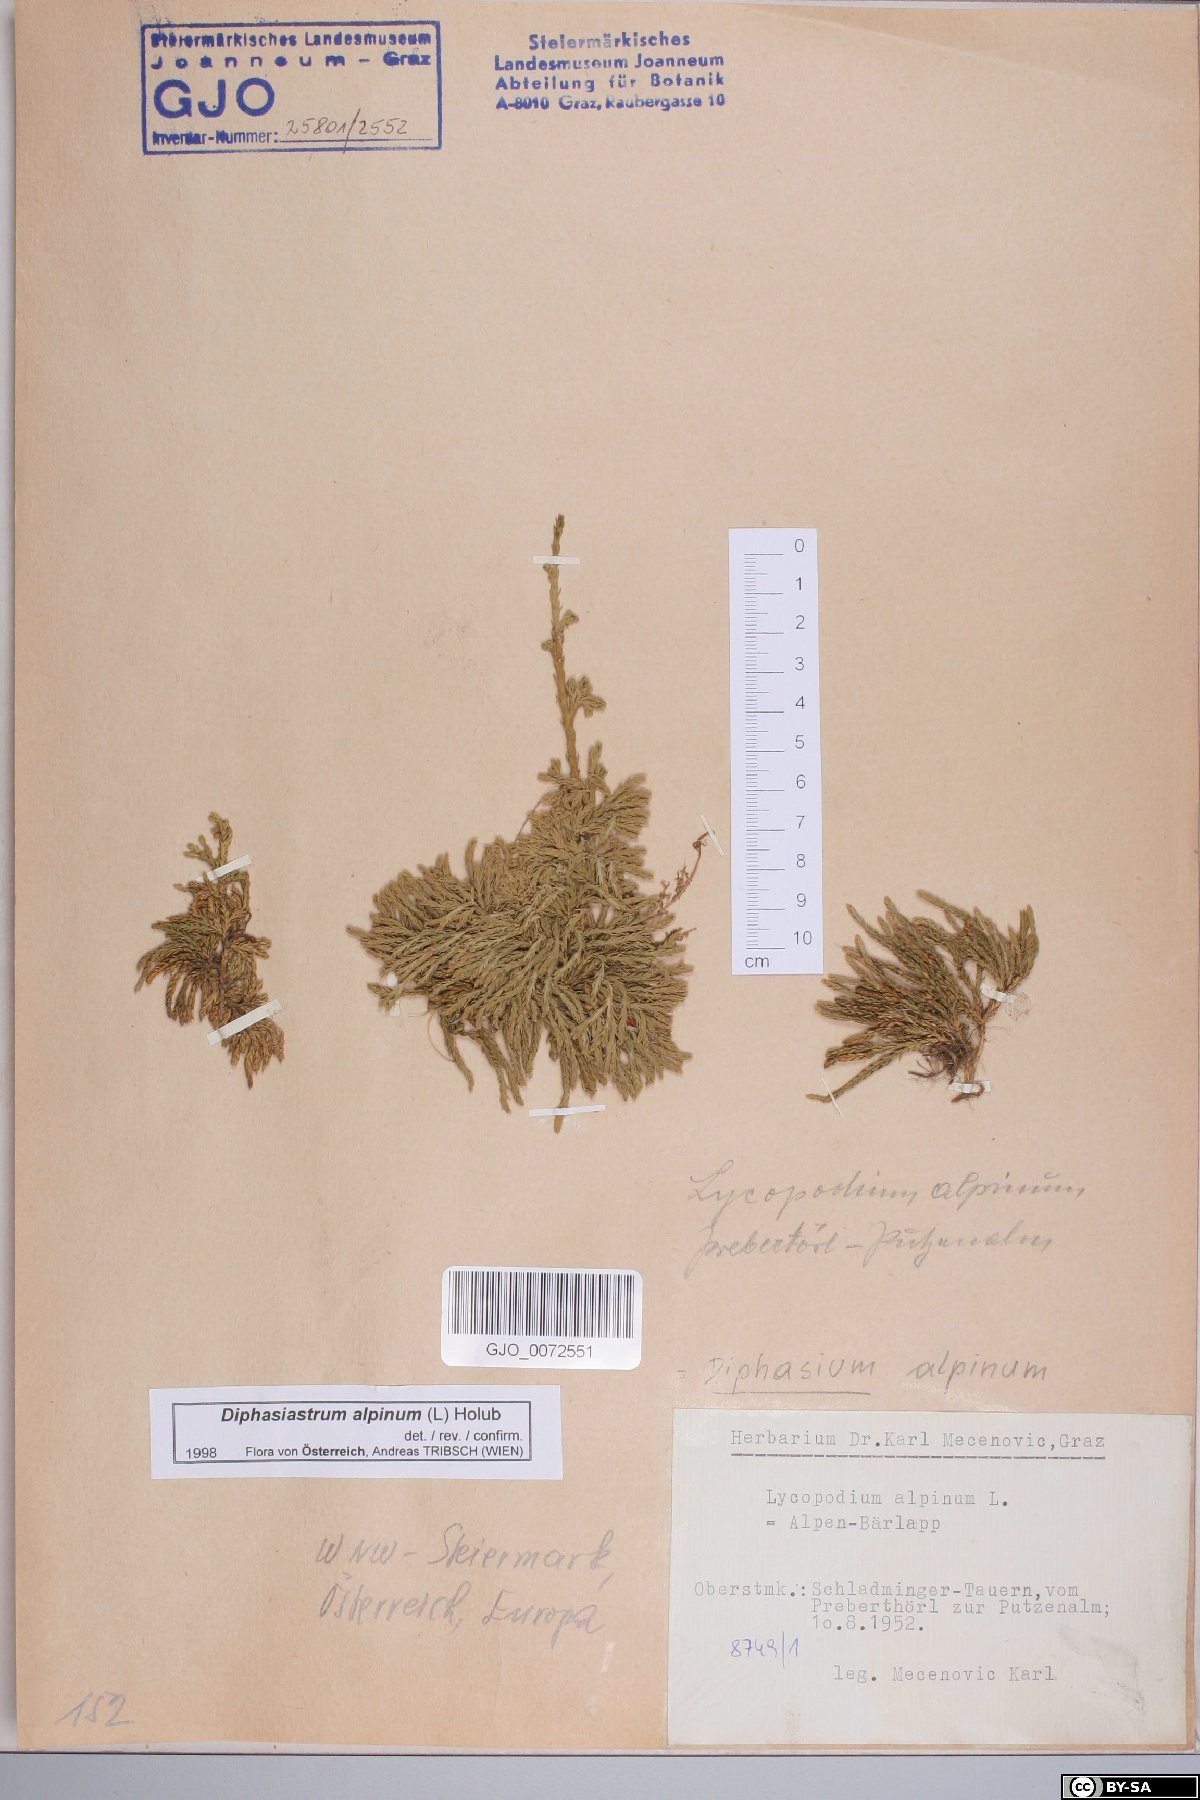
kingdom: Plantae
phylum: Tracheophyta
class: Lycopodiopsida
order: Lycopodiales
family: Lycopodiaceae
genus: Diphasiastrum
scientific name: Diphasiastrum alpinum
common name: Alpine clubmoss
